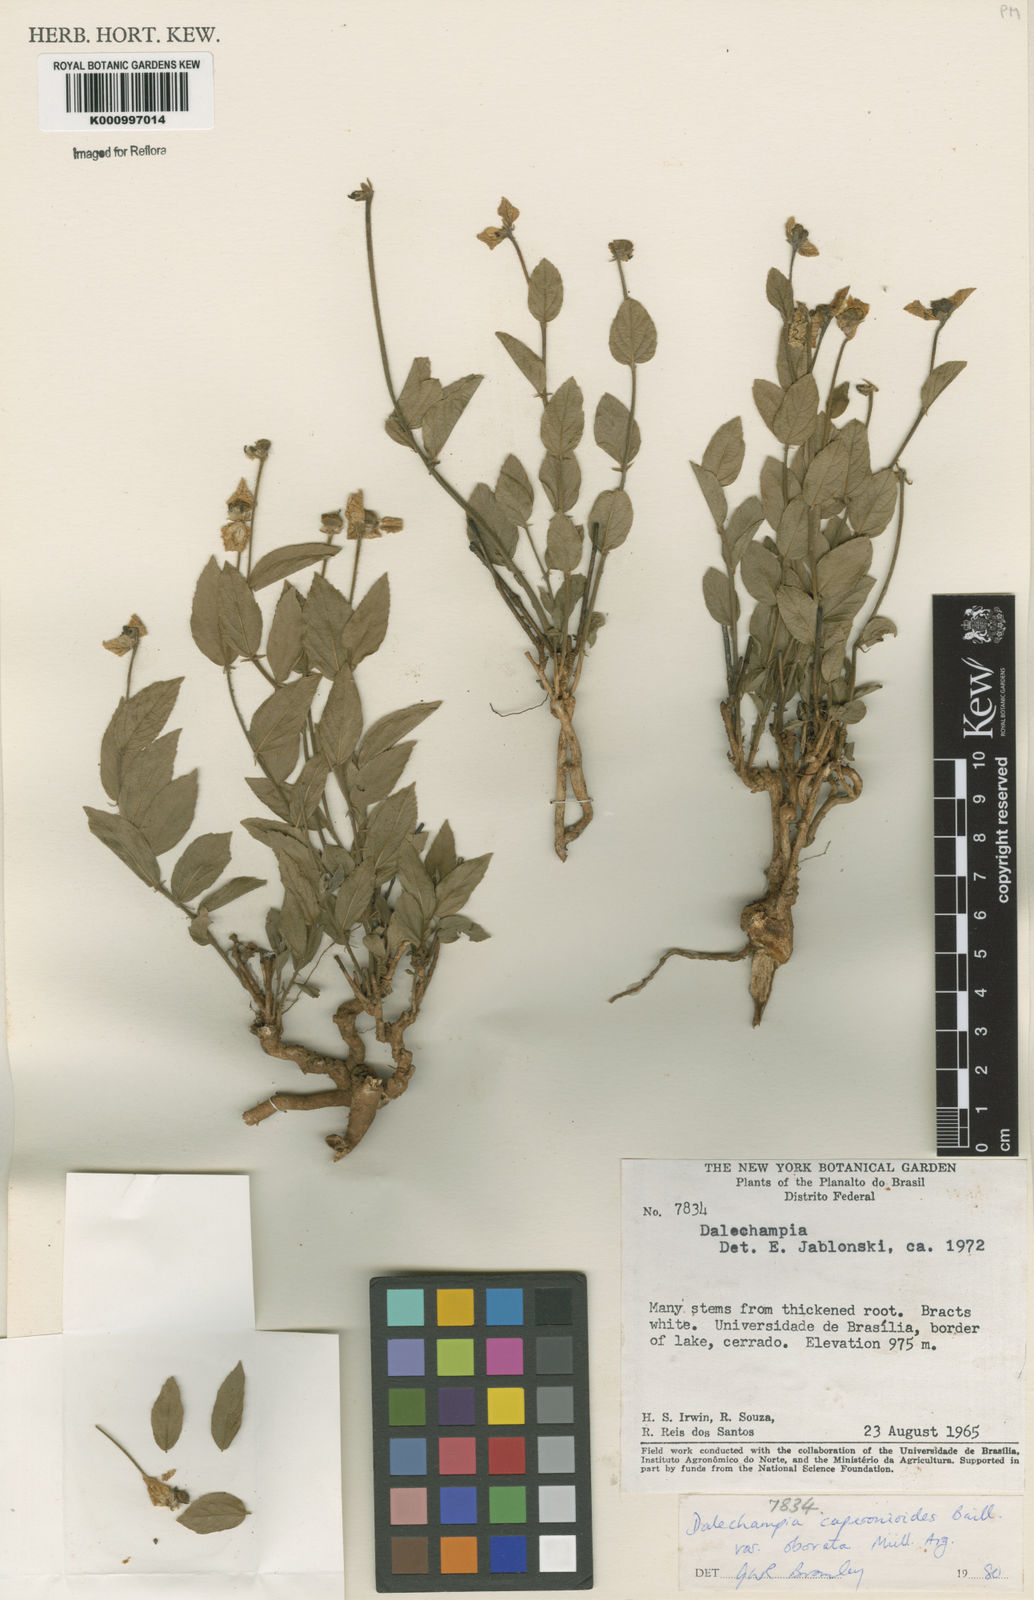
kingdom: Plantae
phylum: Tracheophyta
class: Magnoliopsida
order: Malpighiales
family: Euphorbiaceae
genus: Dalechampia
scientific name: Dalechampia caperonioides
